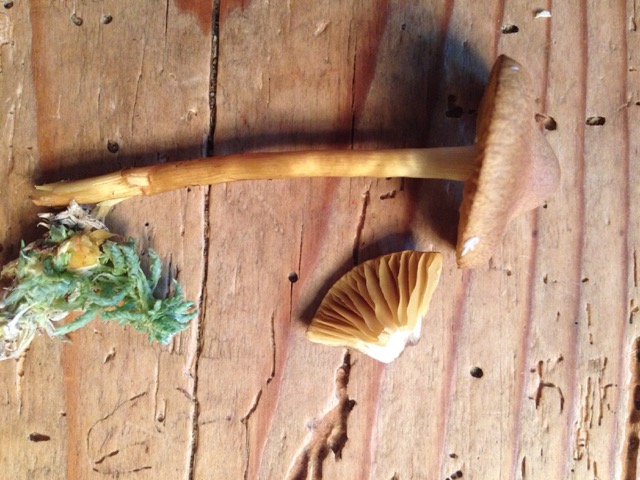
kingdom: Fungi
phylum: Basidiomycota
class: Agaricomycetes
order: Agaricales
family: Cortinariaceae
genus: Cortinarius
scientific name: Cortinarius
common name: gulbladet slørhat
